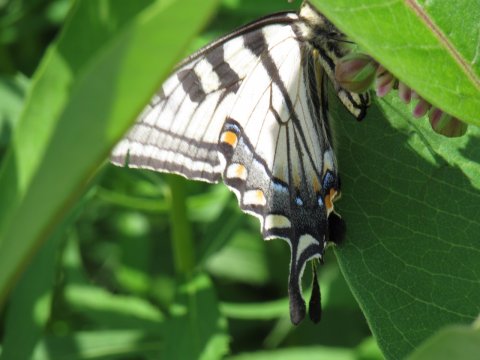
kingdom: Animalia
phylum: Arthropoda
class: Insecta
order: Lepidoptera
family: Papilionidae
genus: Pterourus
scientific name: Pterourus canadensis
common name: Canadian Tiger Swallowtail
